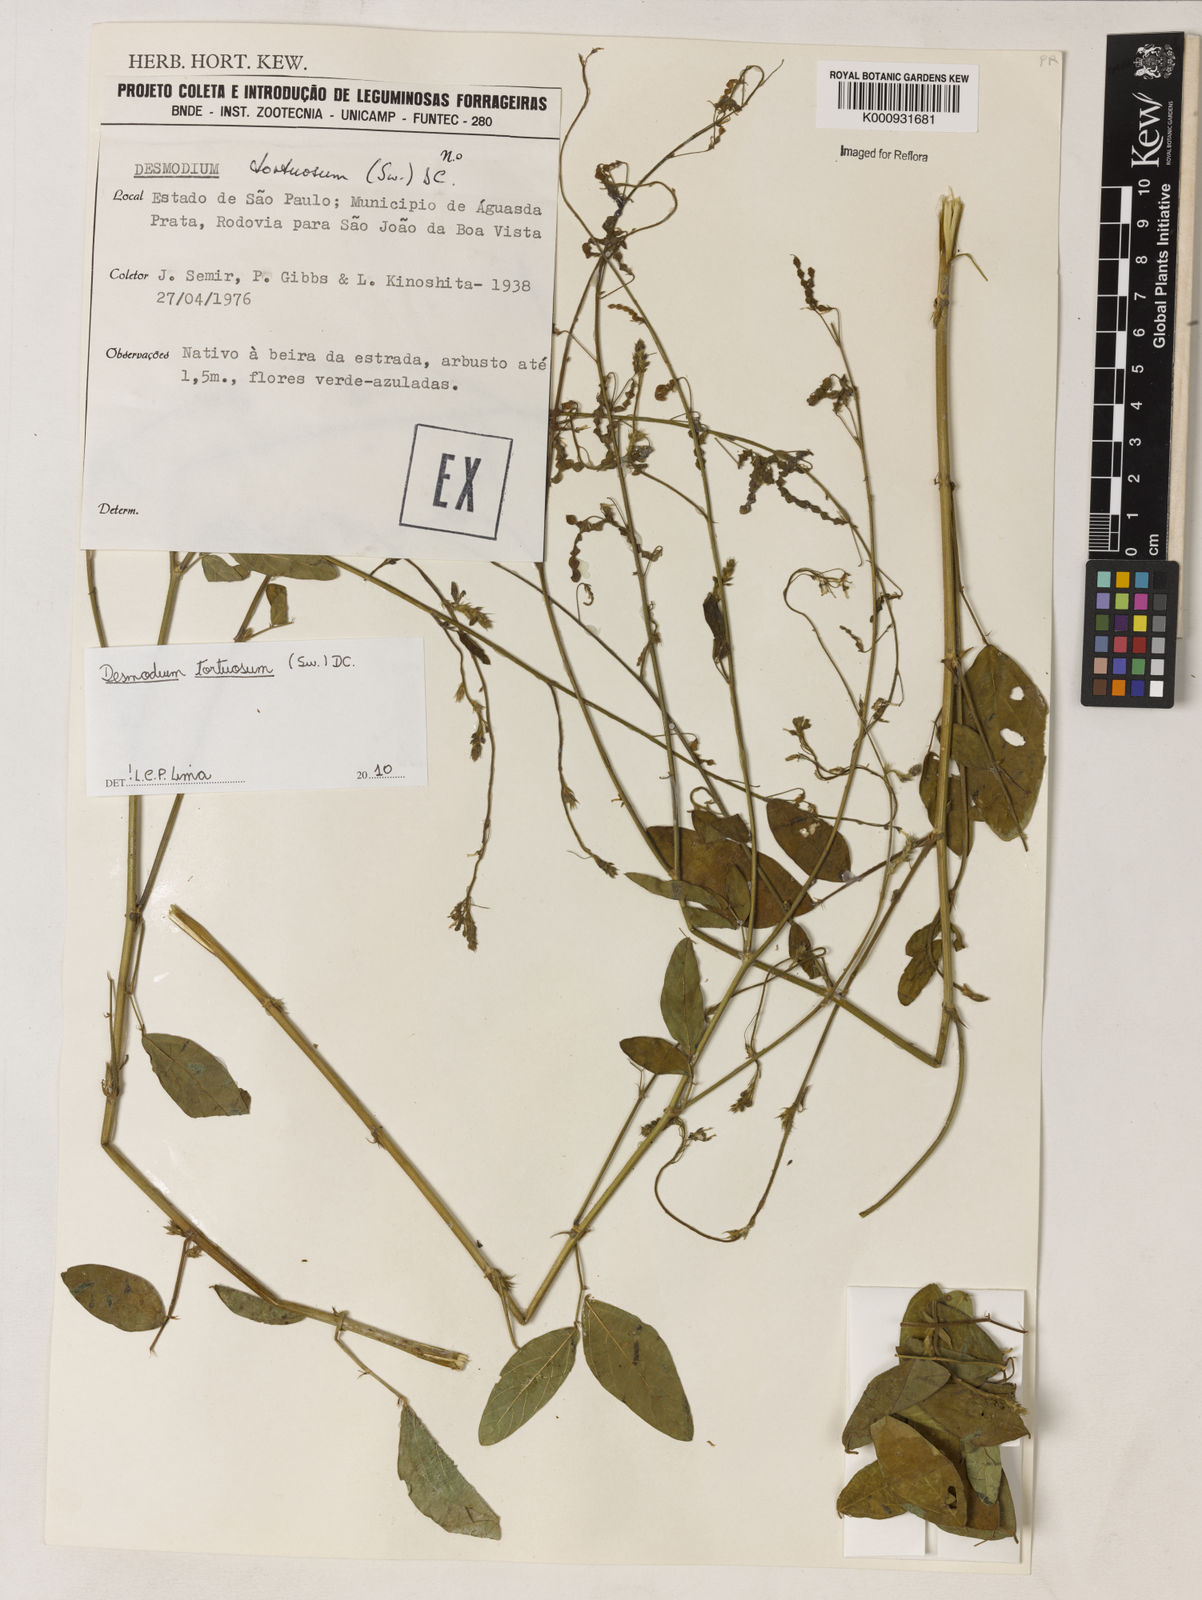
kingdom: Plantae
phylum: Tracheophyta
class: Magnoliopsida
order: Fabales
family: Fabaceae
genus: Desmodium
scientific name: Desmodium tortuosum
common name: Dixie ticktrefoil
